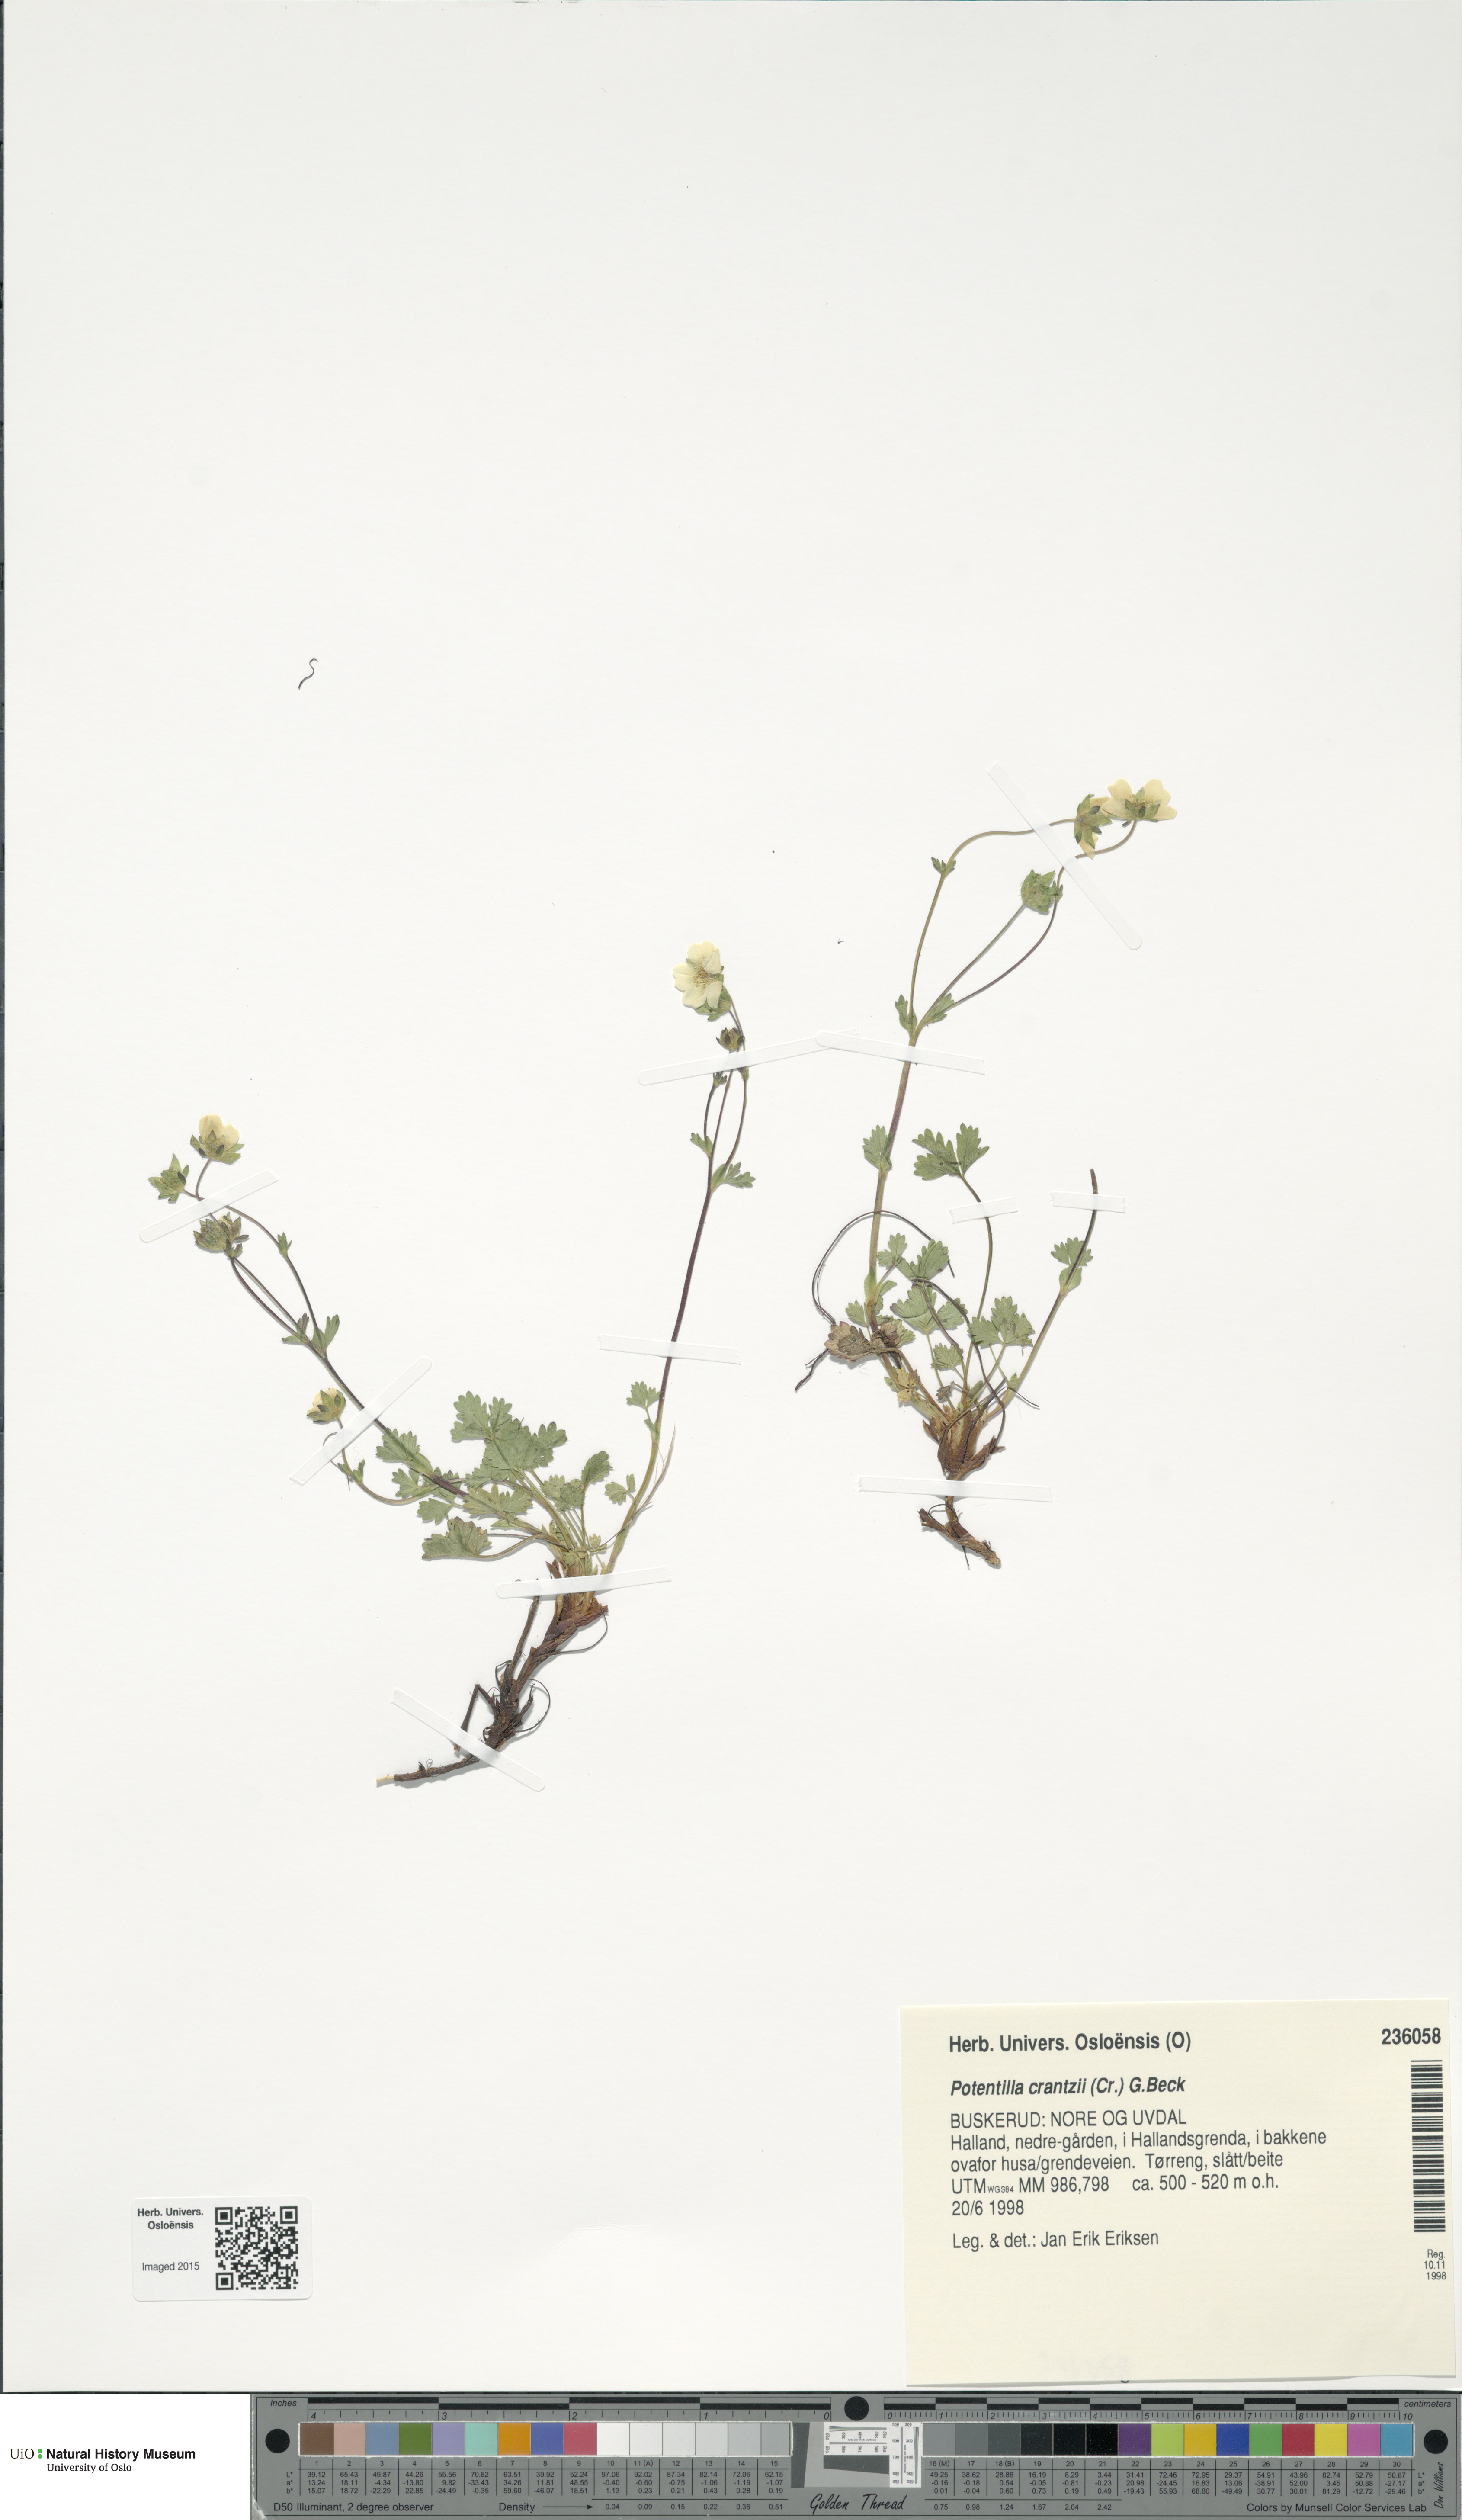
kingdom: Plantae
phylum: Tracheophyta
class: Magnoliopsida
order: Rosales
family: Rosaceae
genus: Potentilla
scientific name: Potentilla crantzii
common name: Alpine cinquefoil
